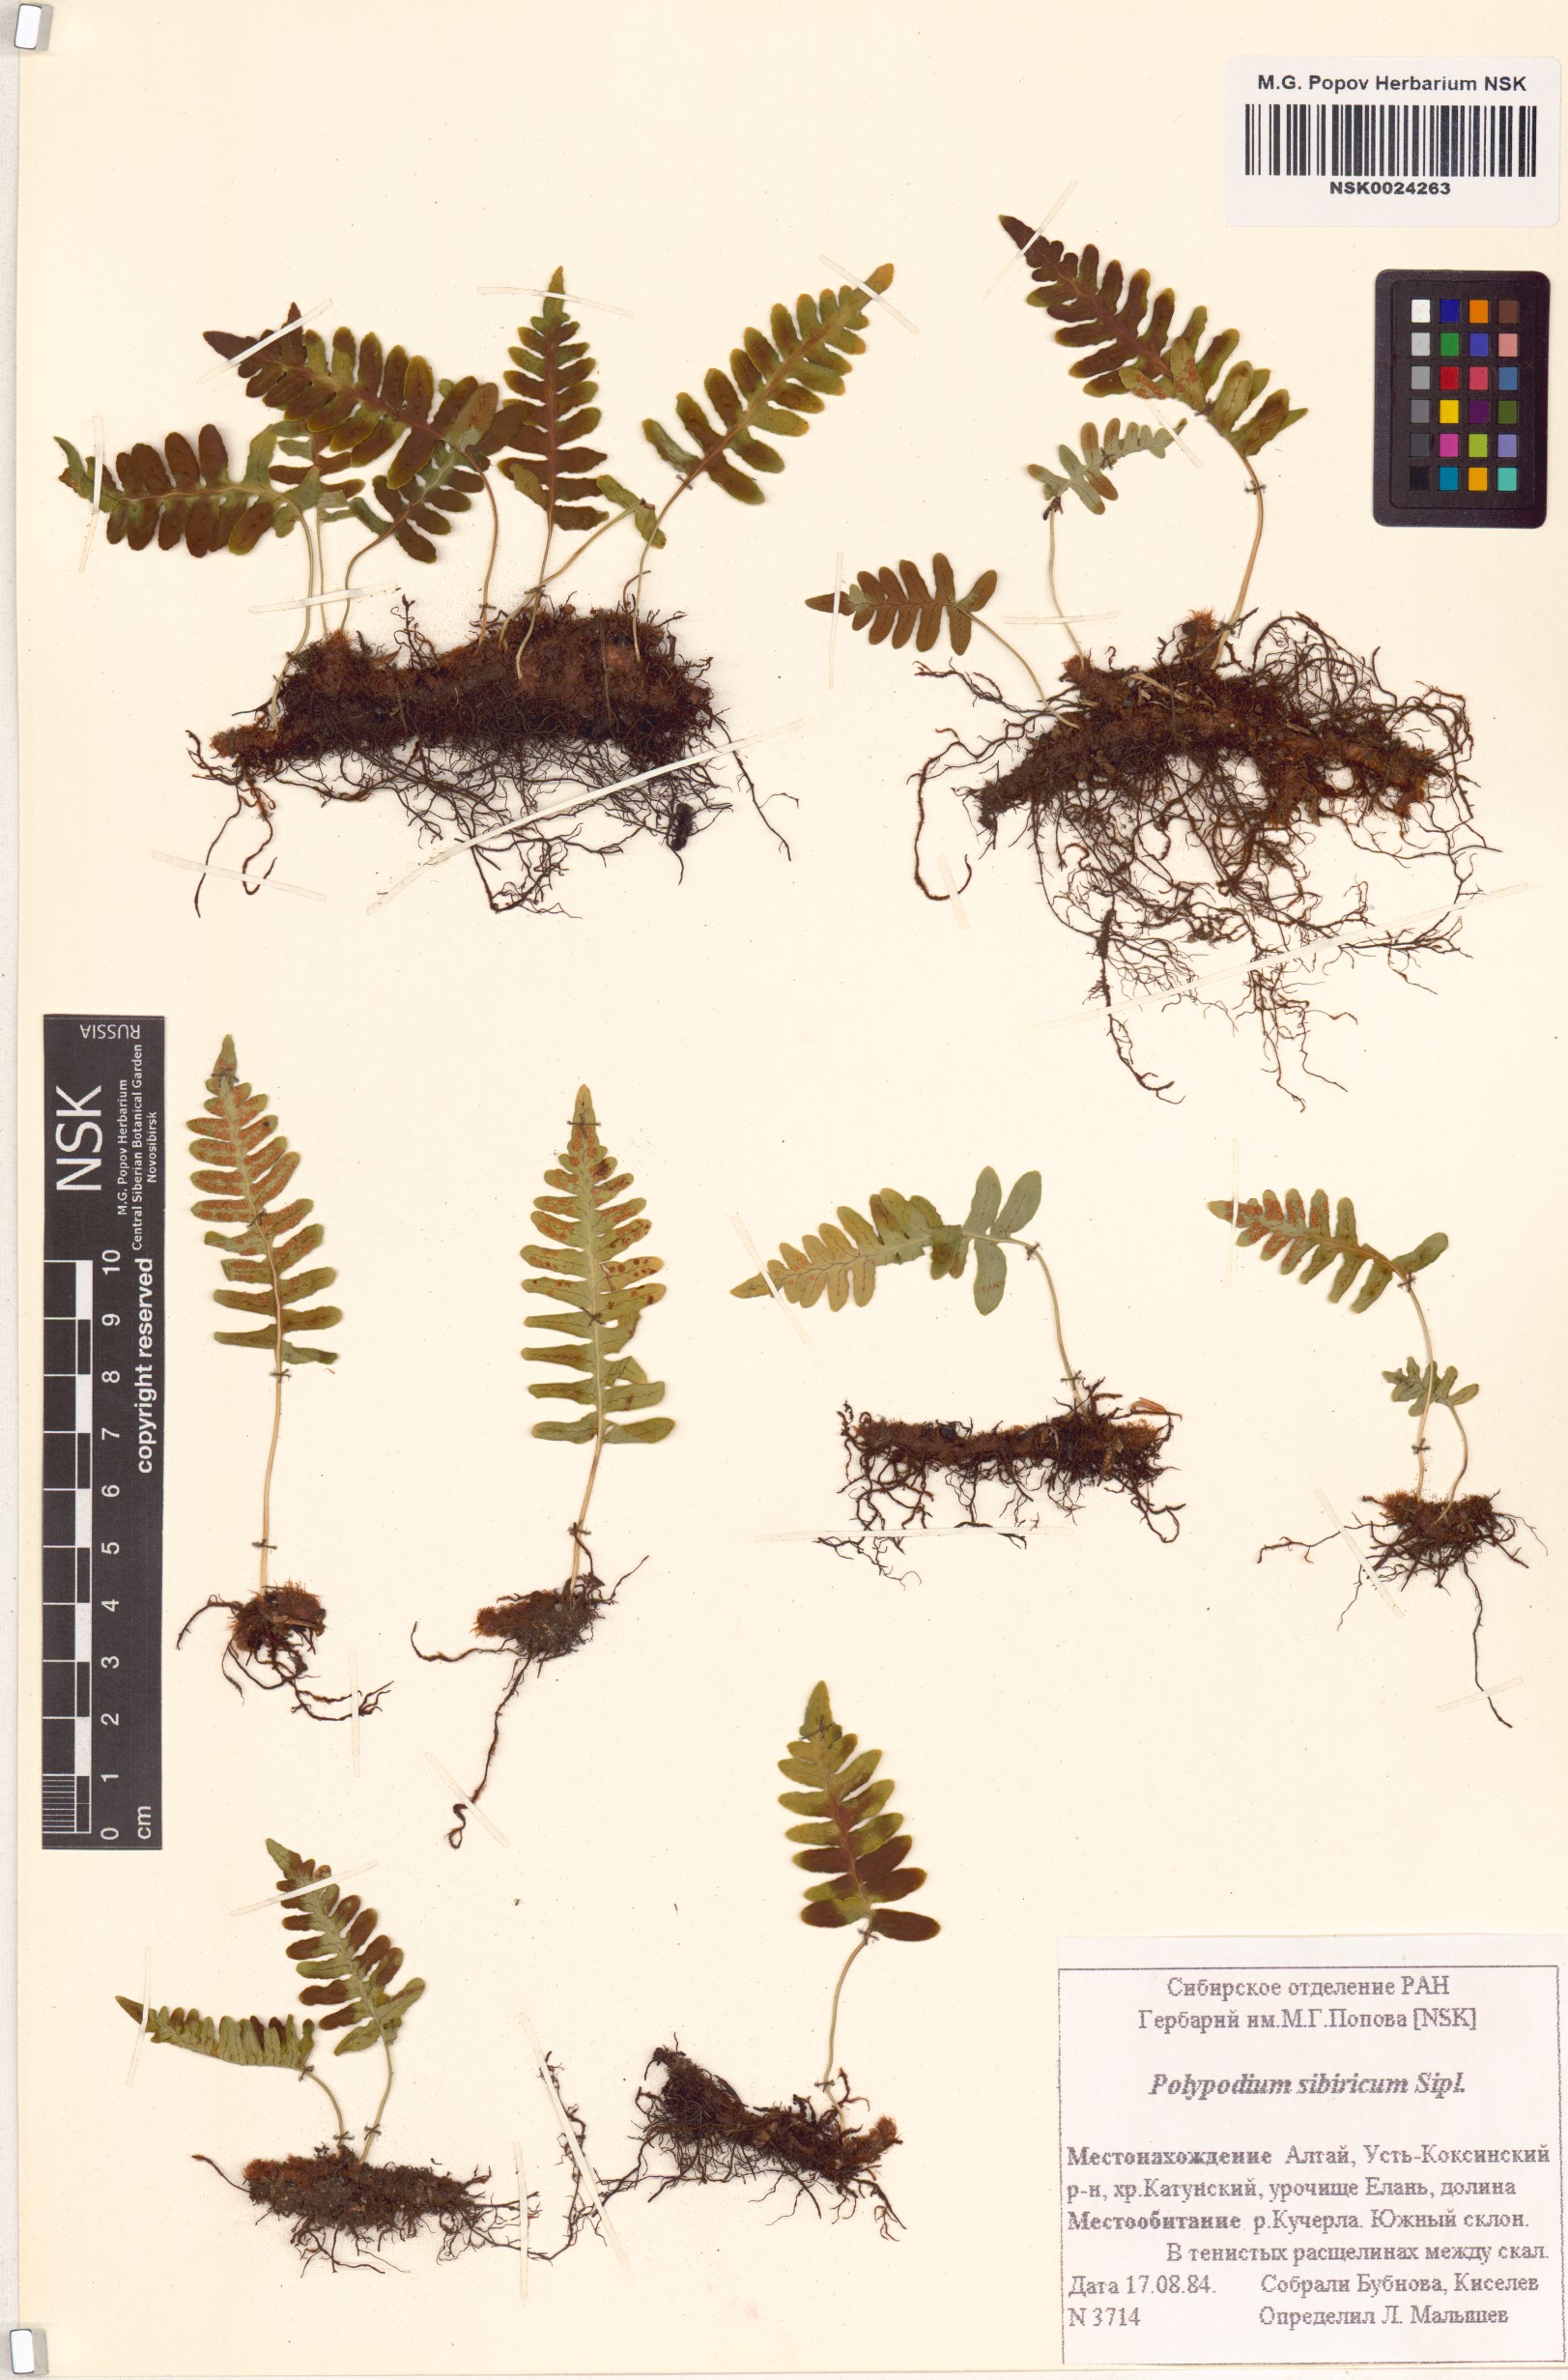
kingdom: Plantae
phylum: Tracheophyta
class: Polypodiopsida
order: Polypodiales
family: Polypodiaceae
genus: Polypodium
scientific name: Polypodium sibiricum
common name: Siberian polypody
